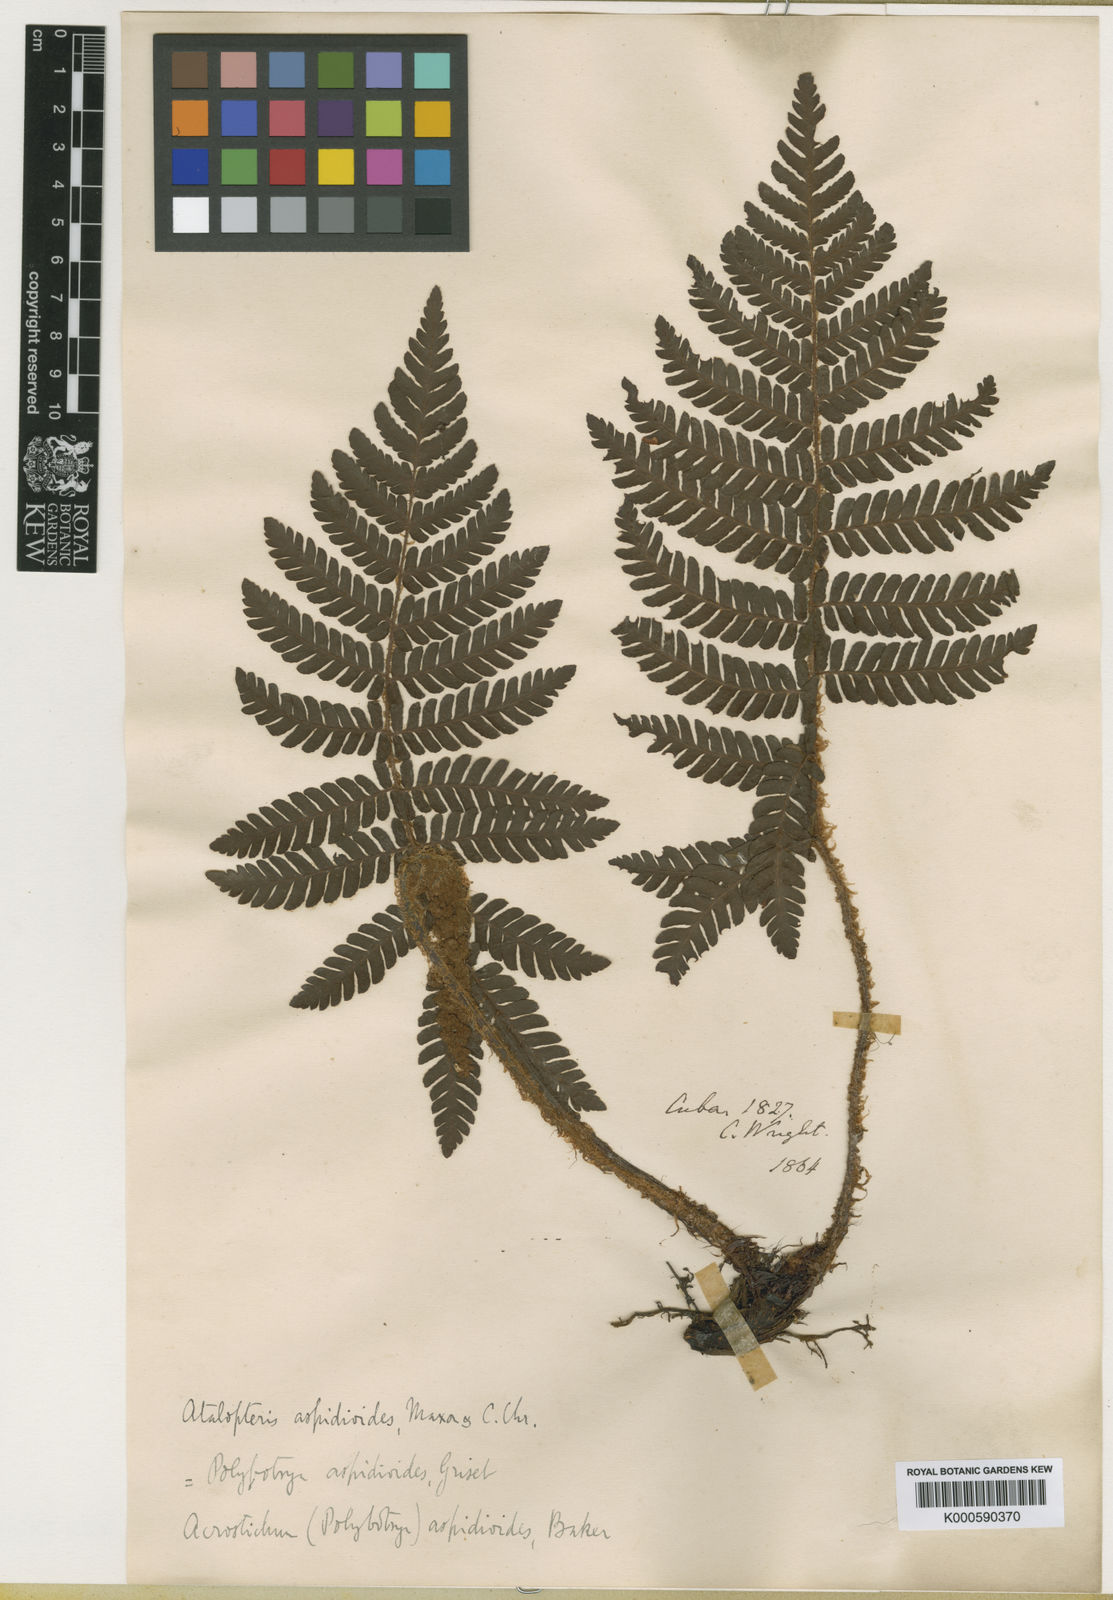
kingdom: Plantae
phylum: Tracheophyta
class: Polypodiopsida
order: Polypodiales
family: Dryopteridaceae
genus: Atalopteris
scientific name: Atalopteris aspidioides
